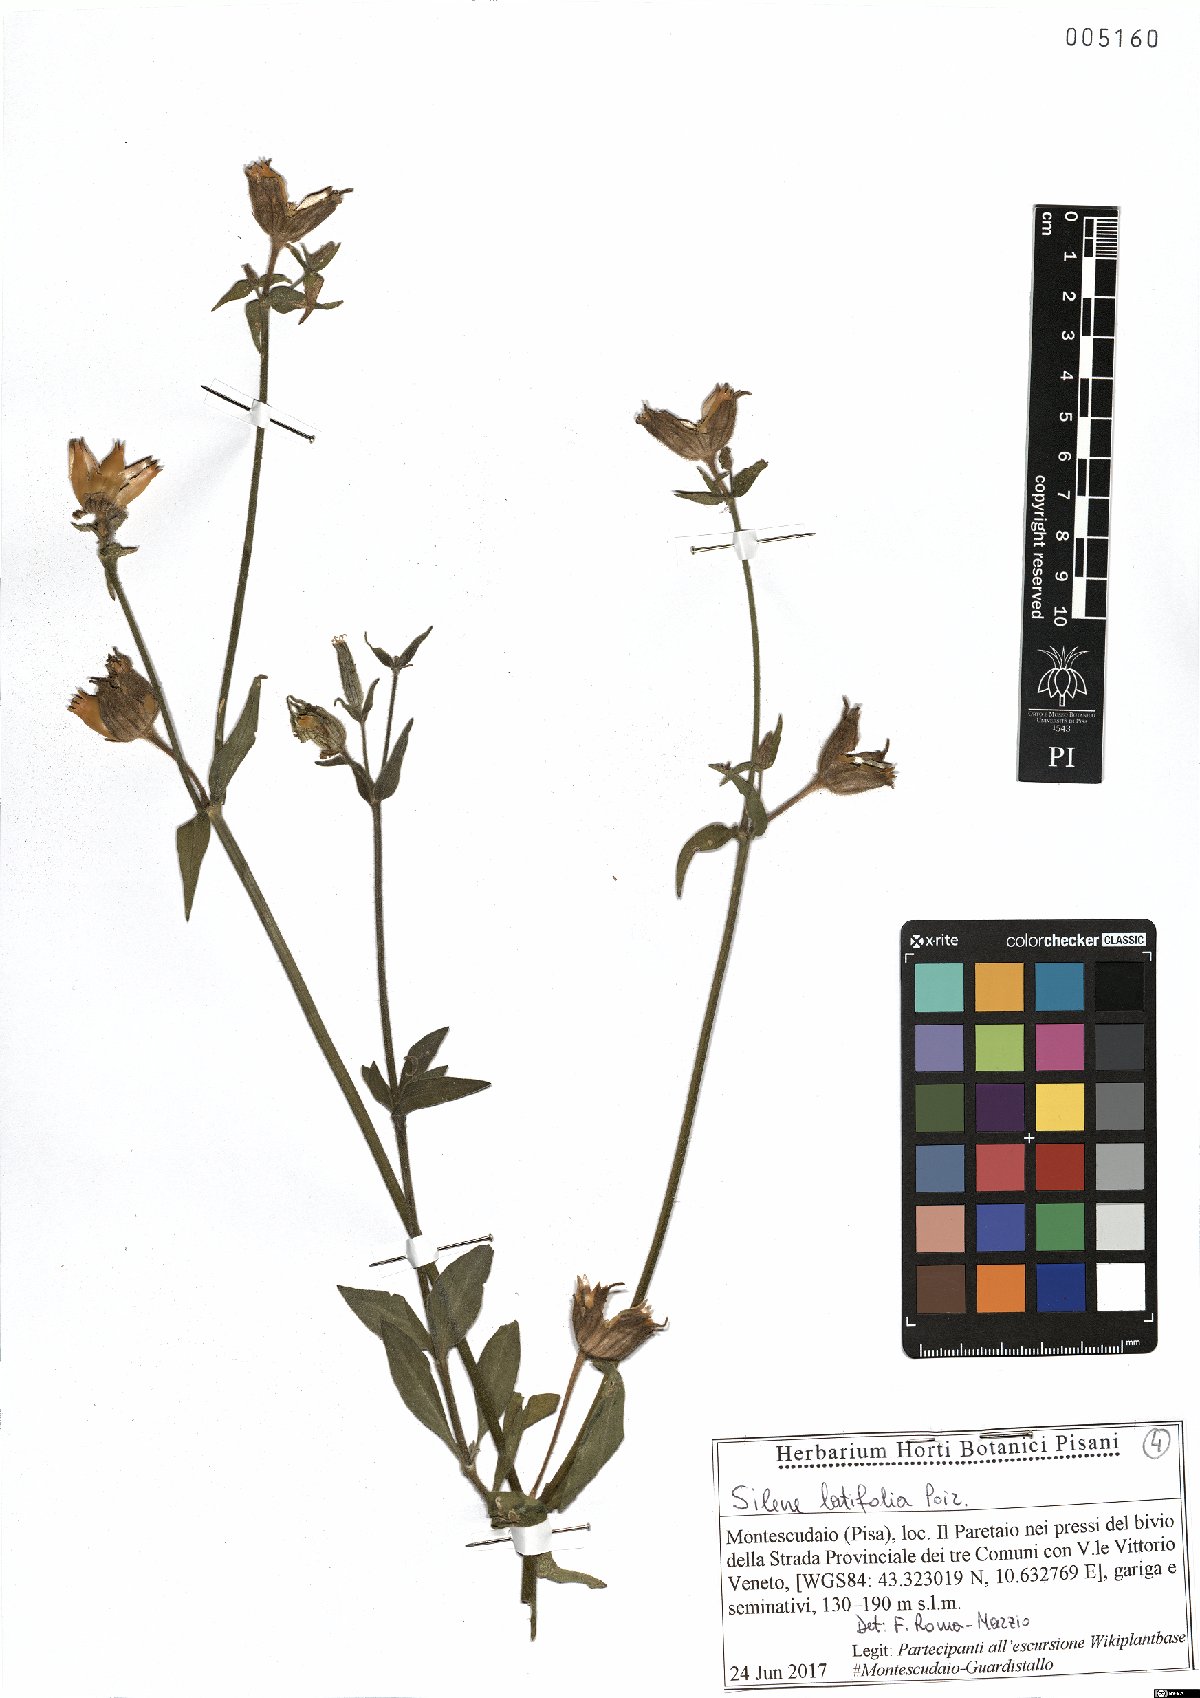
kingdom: Plantae
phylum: Tracheophyta
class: Magnoliopsida
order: Caryophyllales
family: Caryophyllaceae
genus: Silene
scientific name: Silene latifolia
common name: White campion
